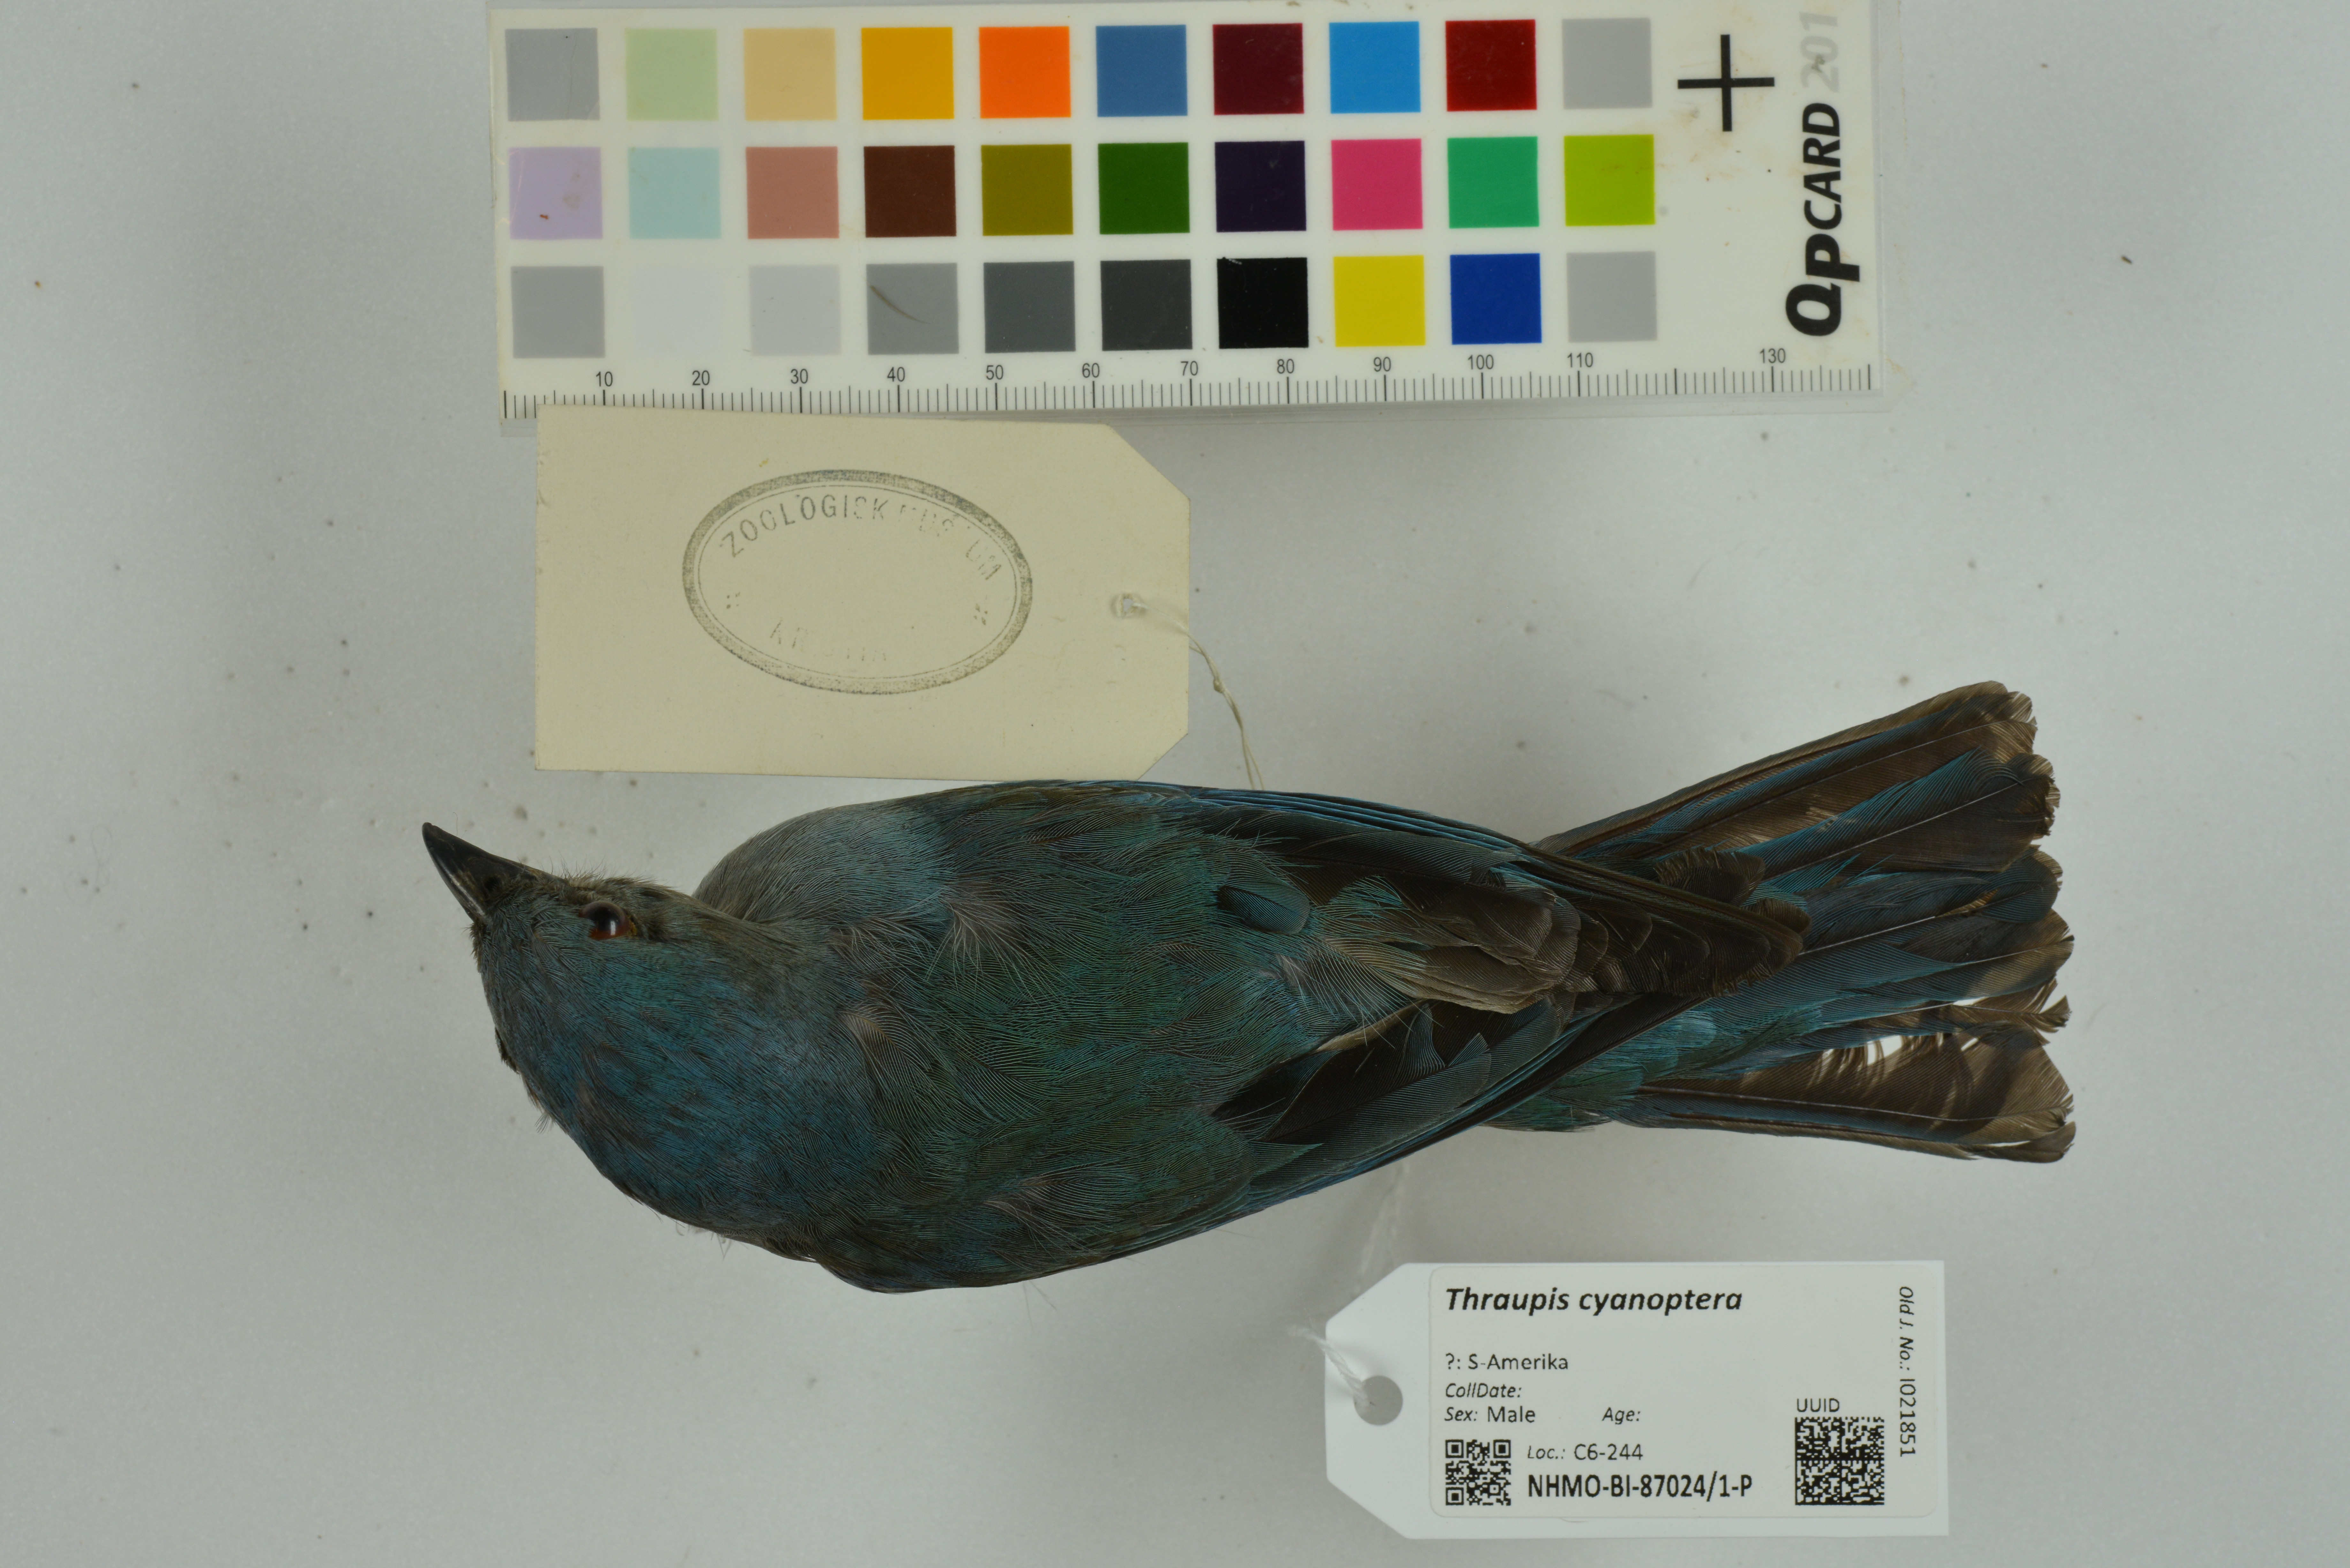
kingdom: Animalia
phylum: Chordata
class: Aves
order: Passeriformes
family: Thraupidae
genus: Thraupis
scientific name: Thraupis cyanoptera
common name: Azure-shouldered tanager
